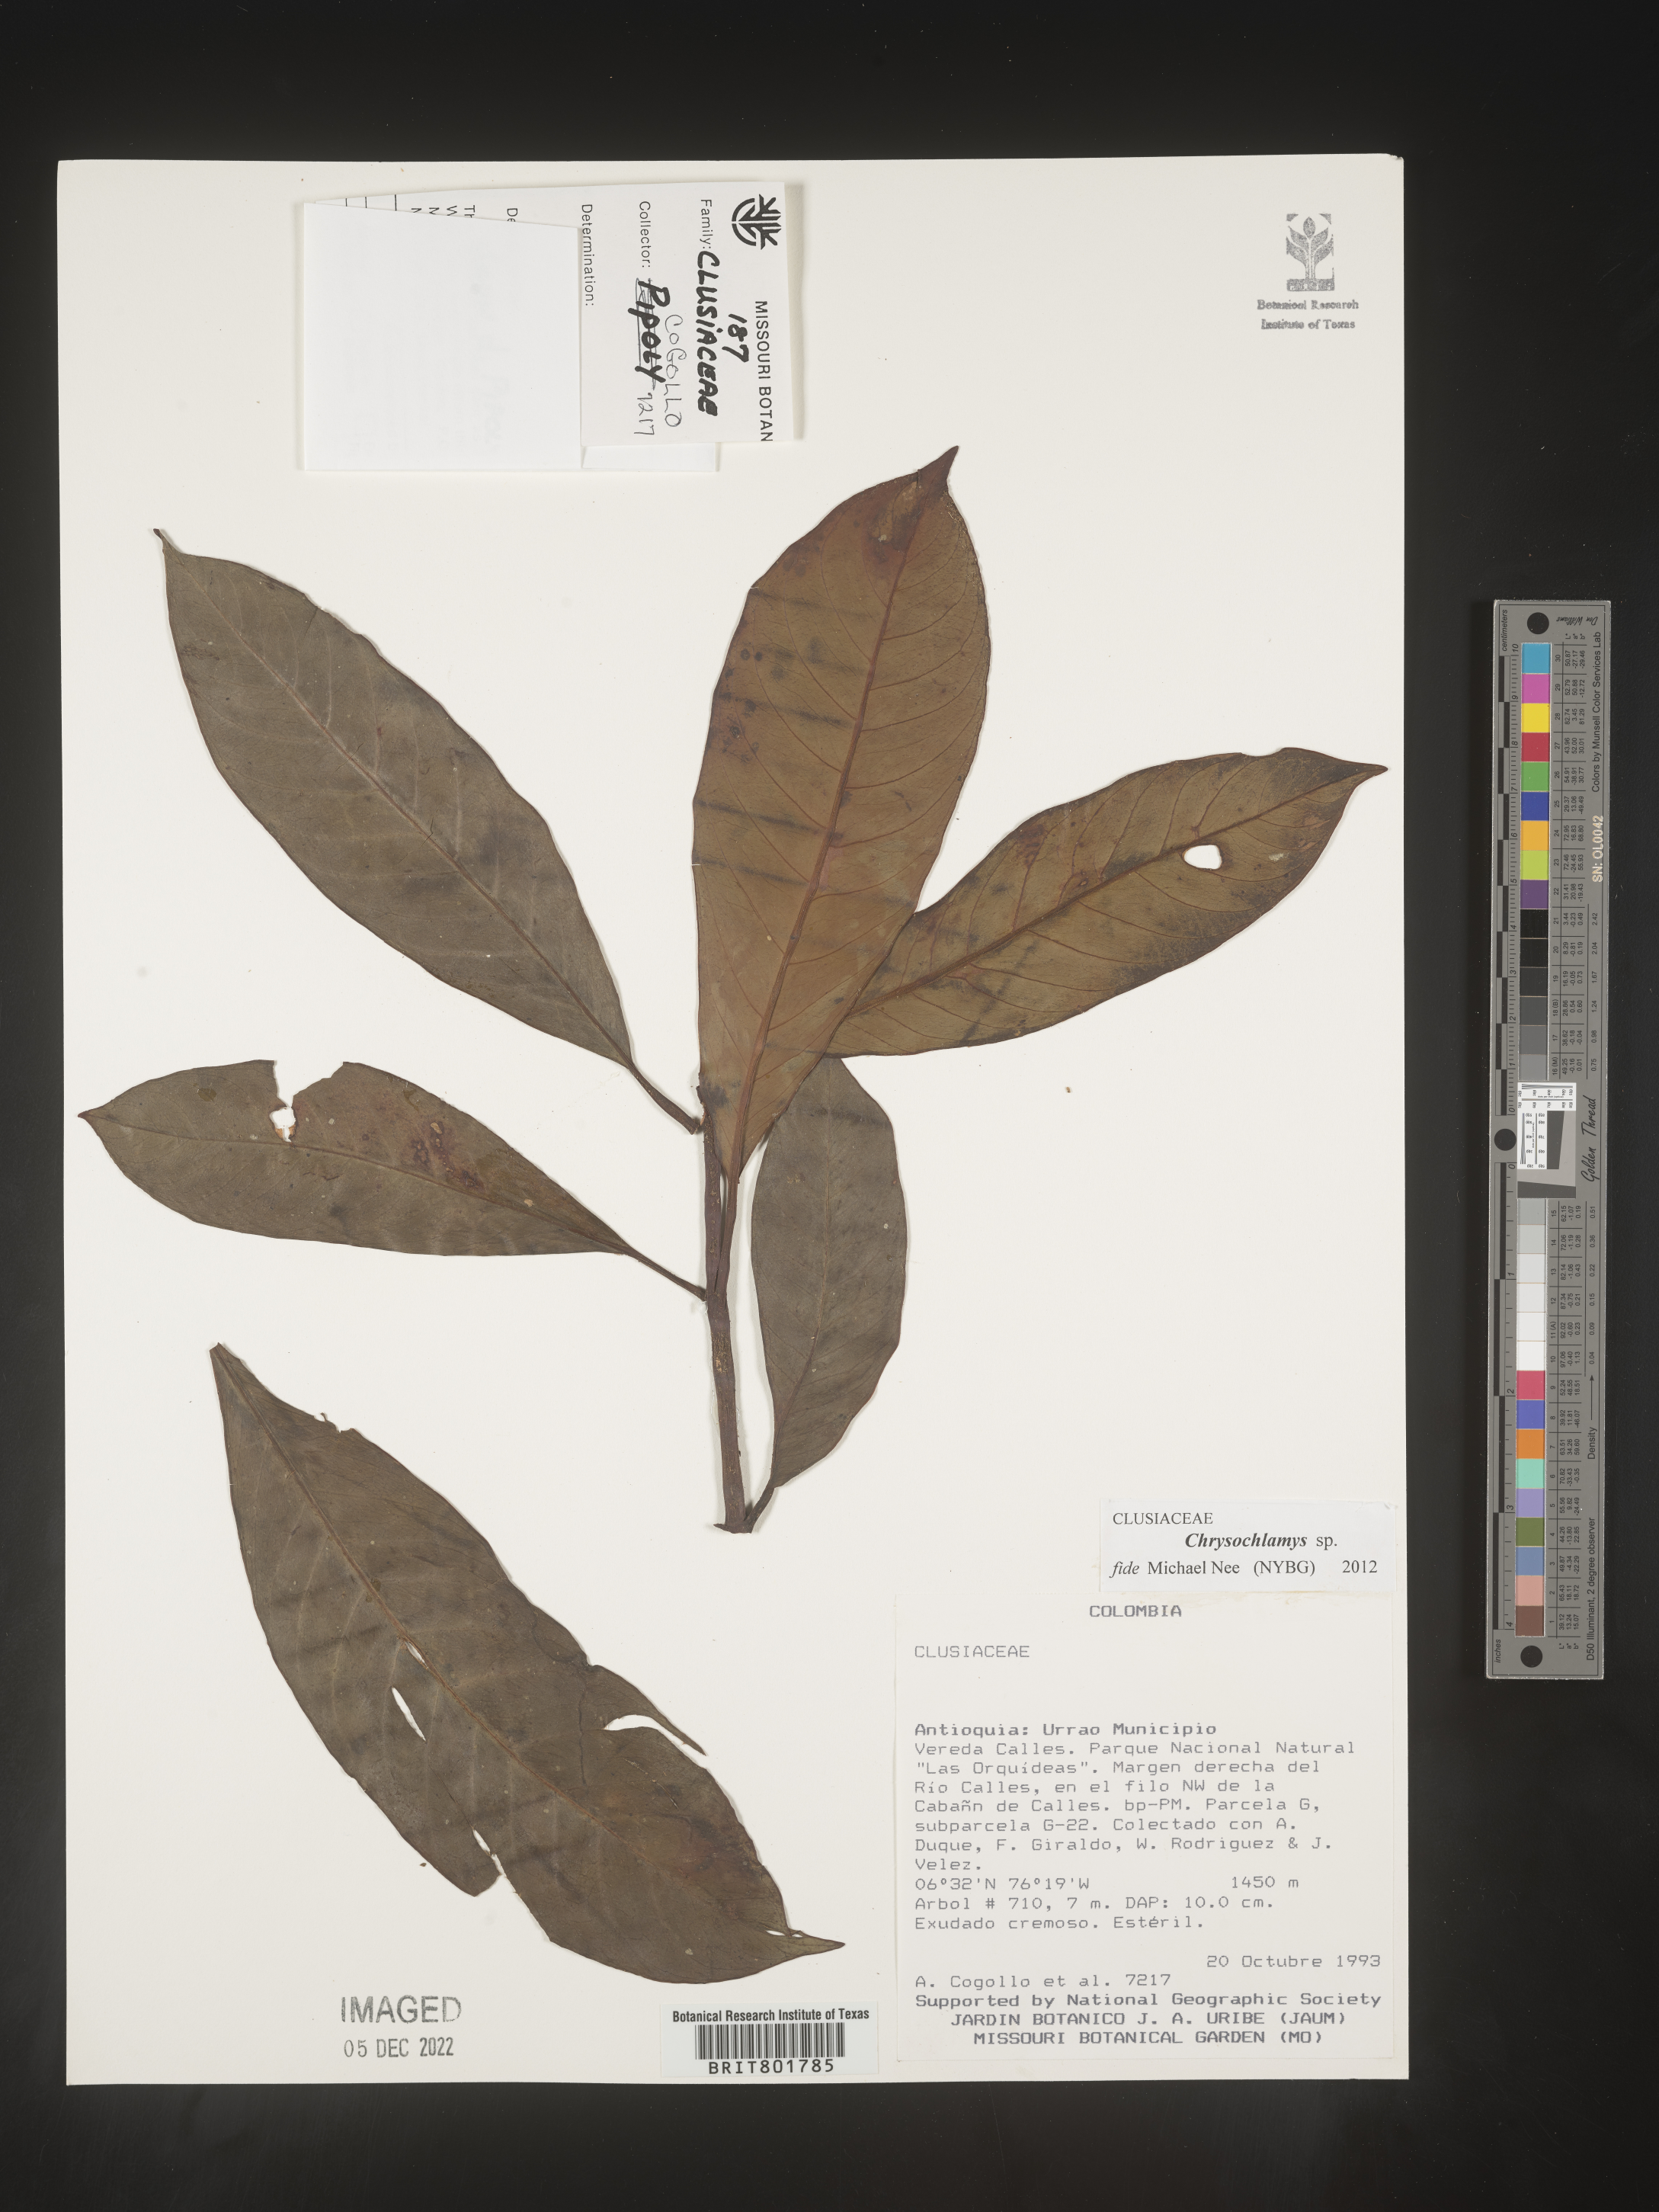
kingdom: Plantae
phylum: Tracheophyta
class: Magnoliopsida
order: Malpighiales
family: Clusiaceae
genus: Chrysochlamys
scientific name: Chrysochlamys
